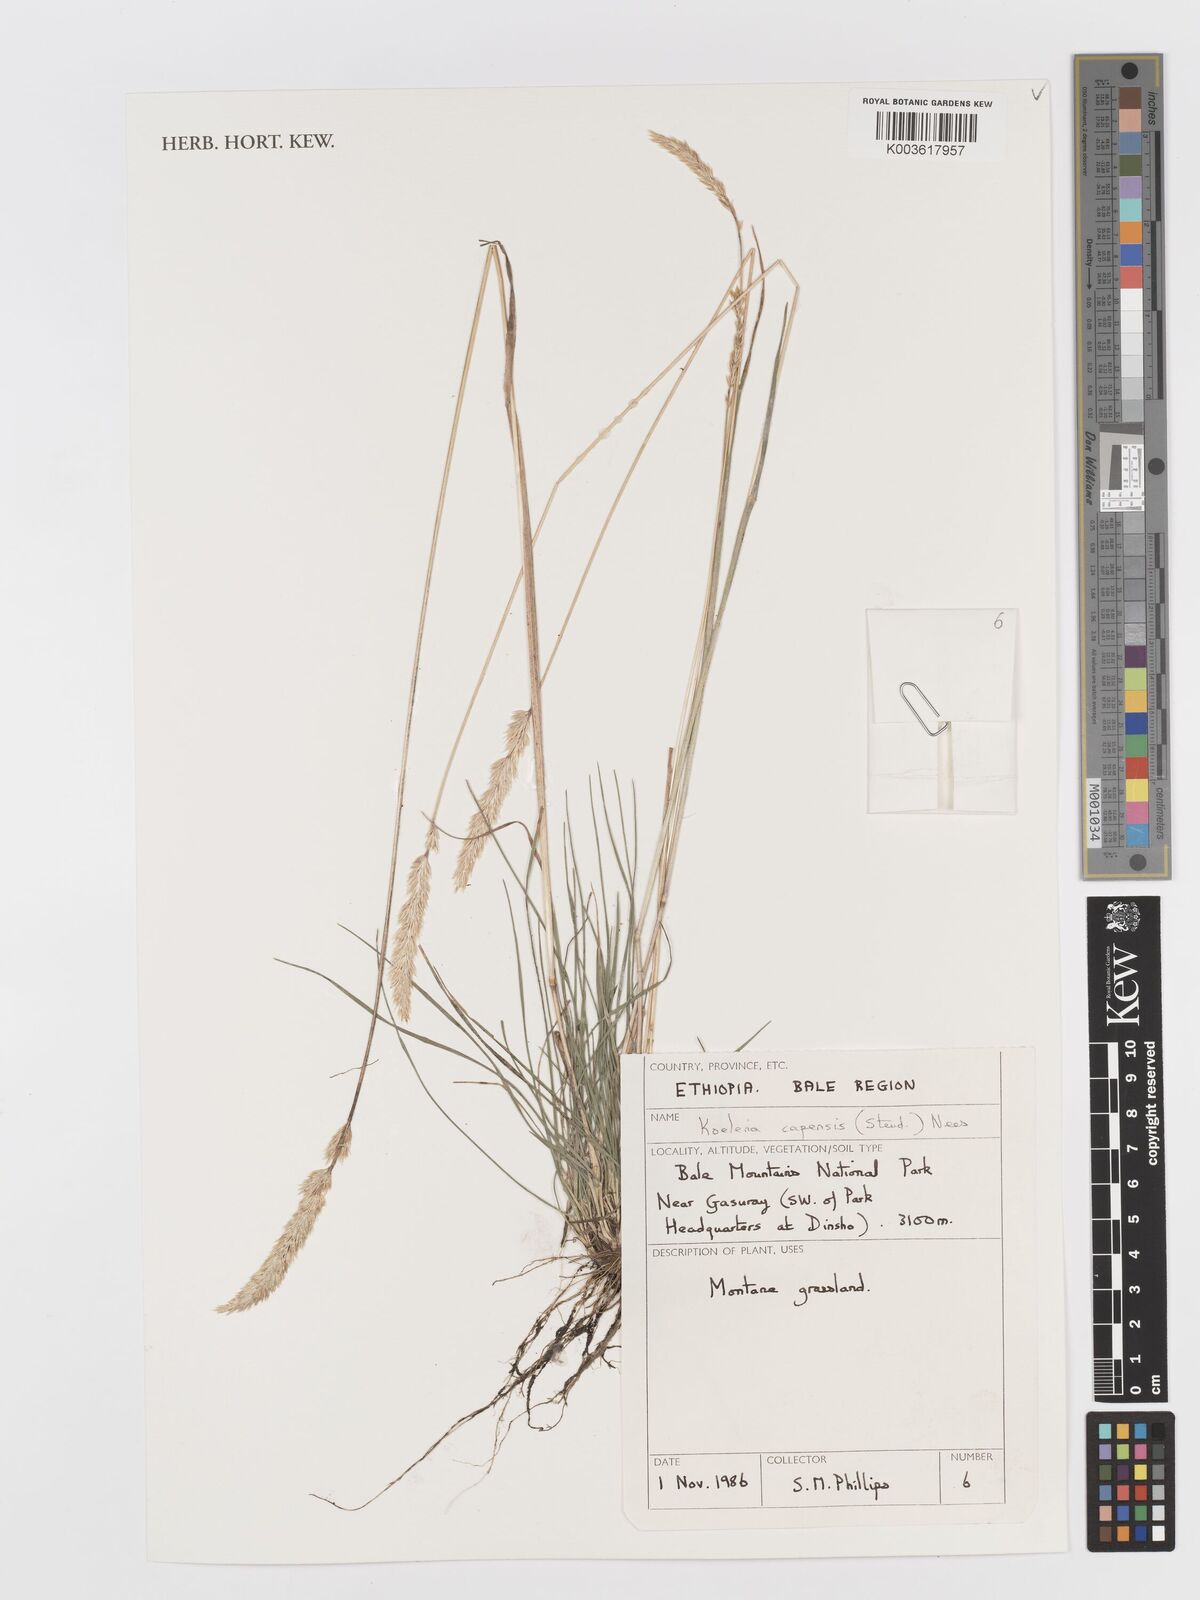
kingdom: Plantae
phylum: Tracheophyta
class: Liliopsida
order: Poales
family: Poaceae
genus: Koeleria
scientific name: Koeleria capensis
